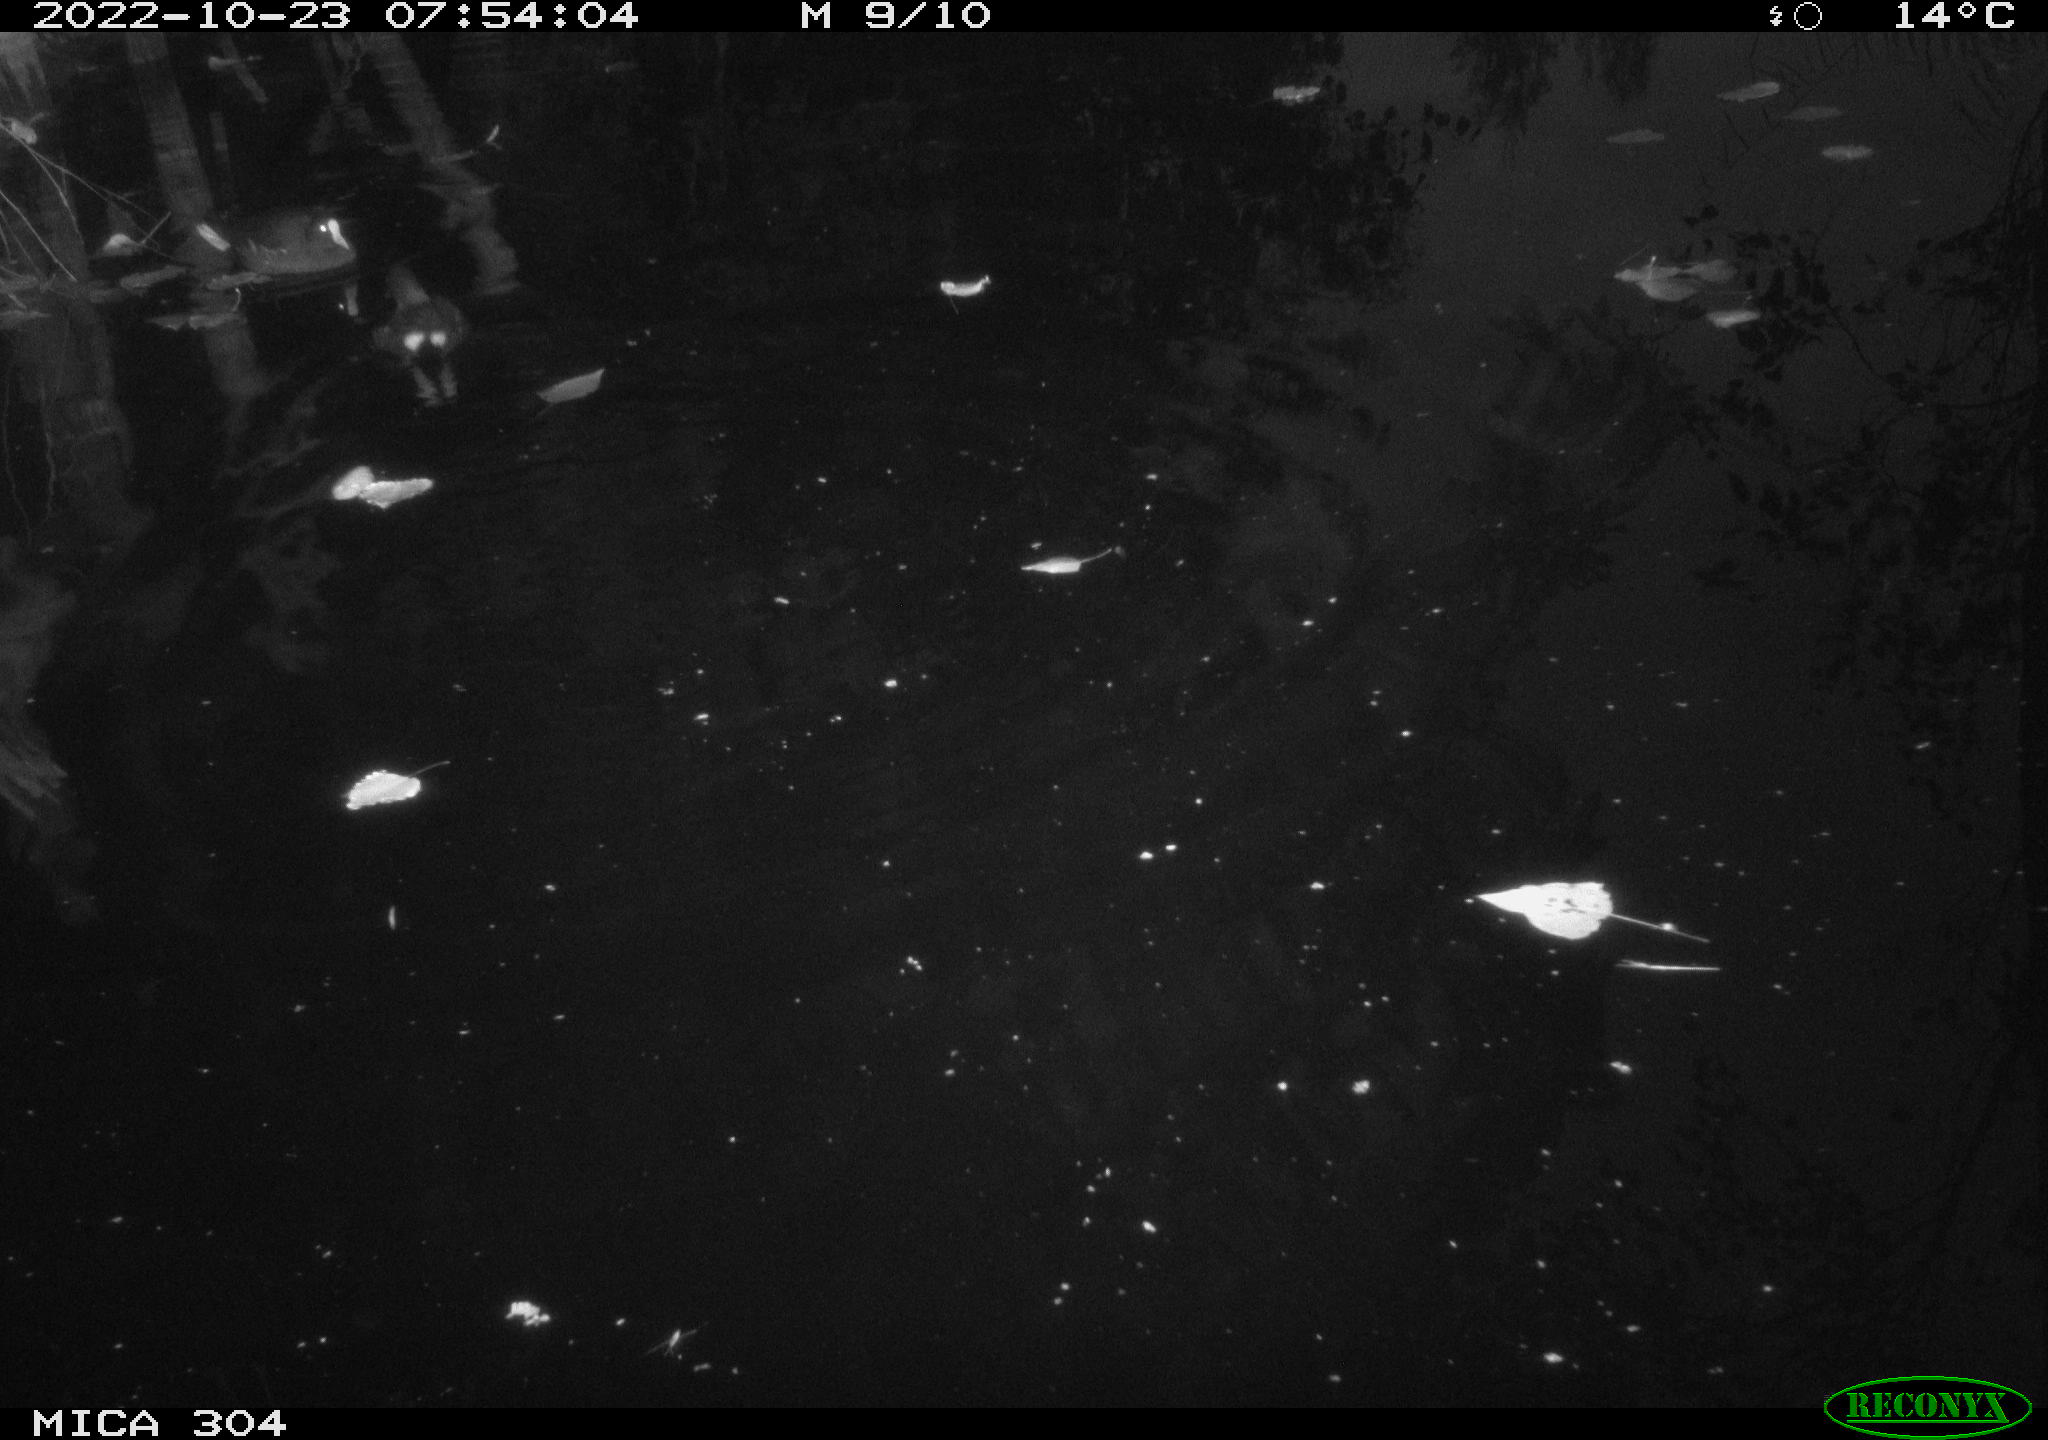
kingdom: Animalia
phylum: Chordata
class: Aves
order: Gruiformes
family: Rallidae
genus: Gallinula
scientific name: Gallinula chloropus
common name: Common moorhen
